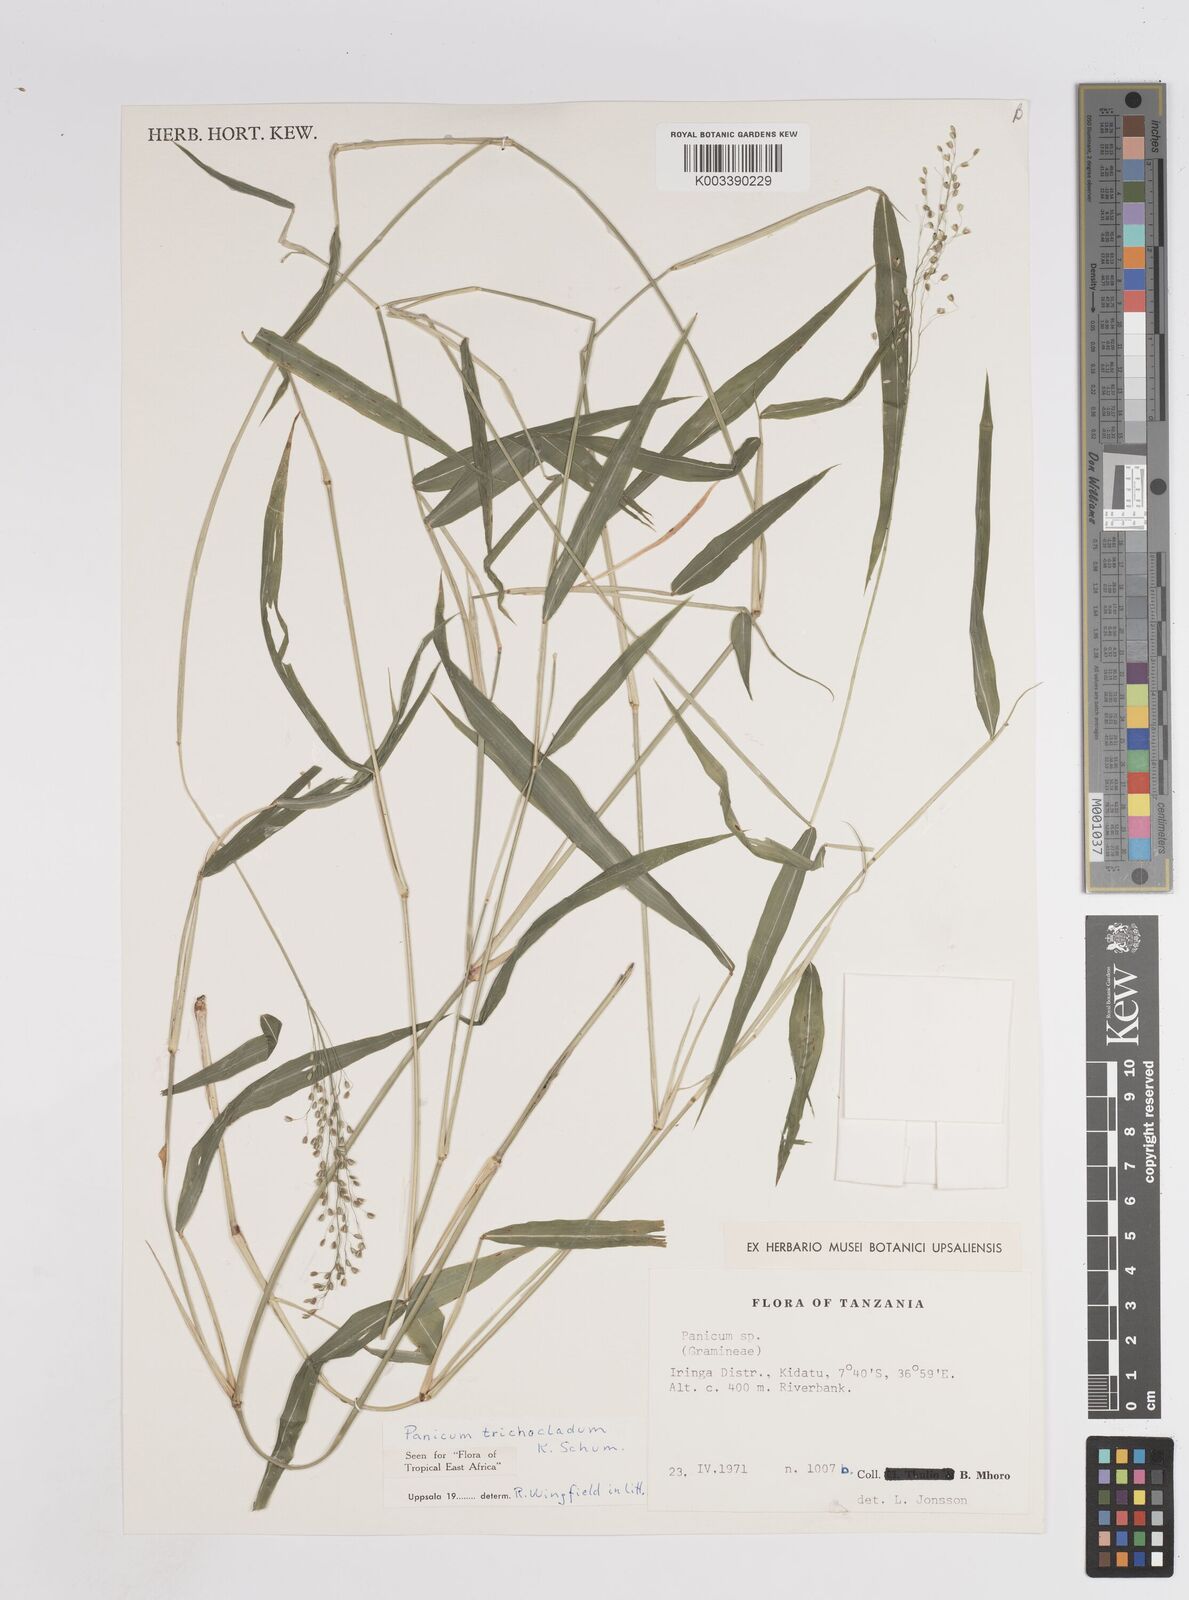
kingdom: Plantae
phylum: Tracheophyta
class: Liliopsida
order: Poales
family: Poaceae
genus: Panicum
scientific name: Panicum trichocladum
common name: Donkey grass
